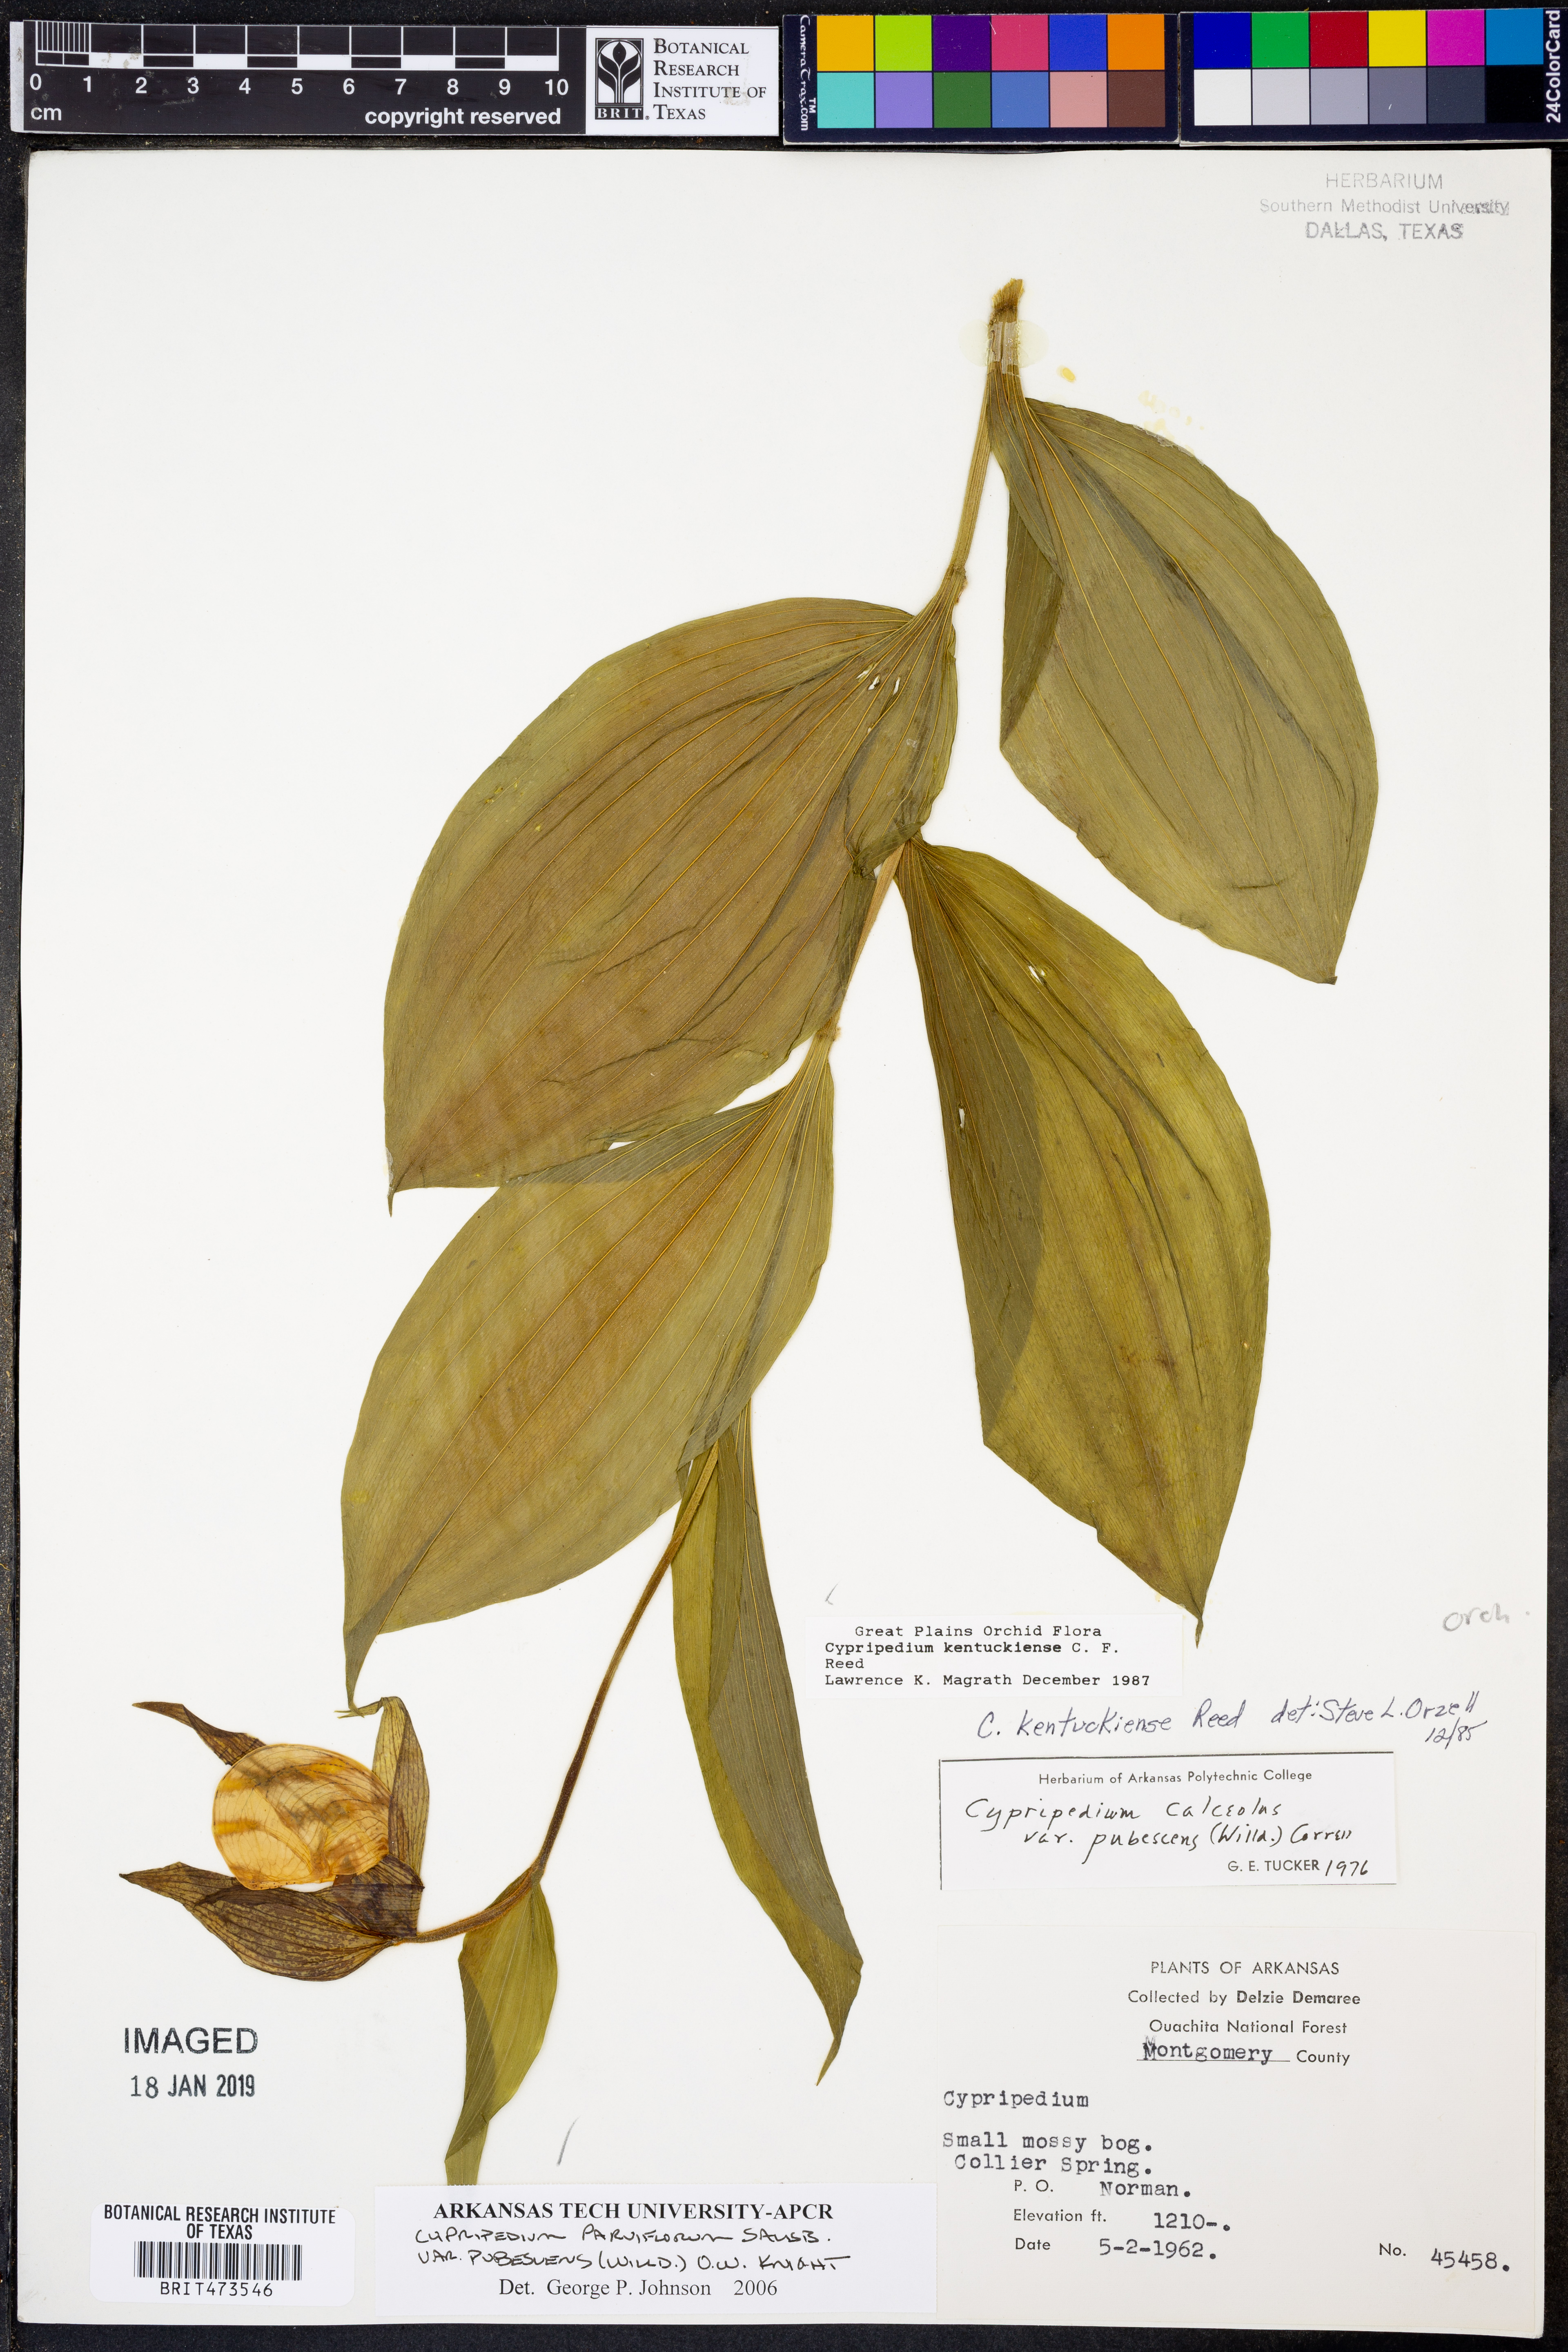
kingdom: Plantae
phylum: Tracheophyta
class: Liliopsida
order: Asparagales
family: Orchidaceae
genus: Cypripedium
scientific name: Cypripedium parviflorum
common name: American yellow lady's-slipper
